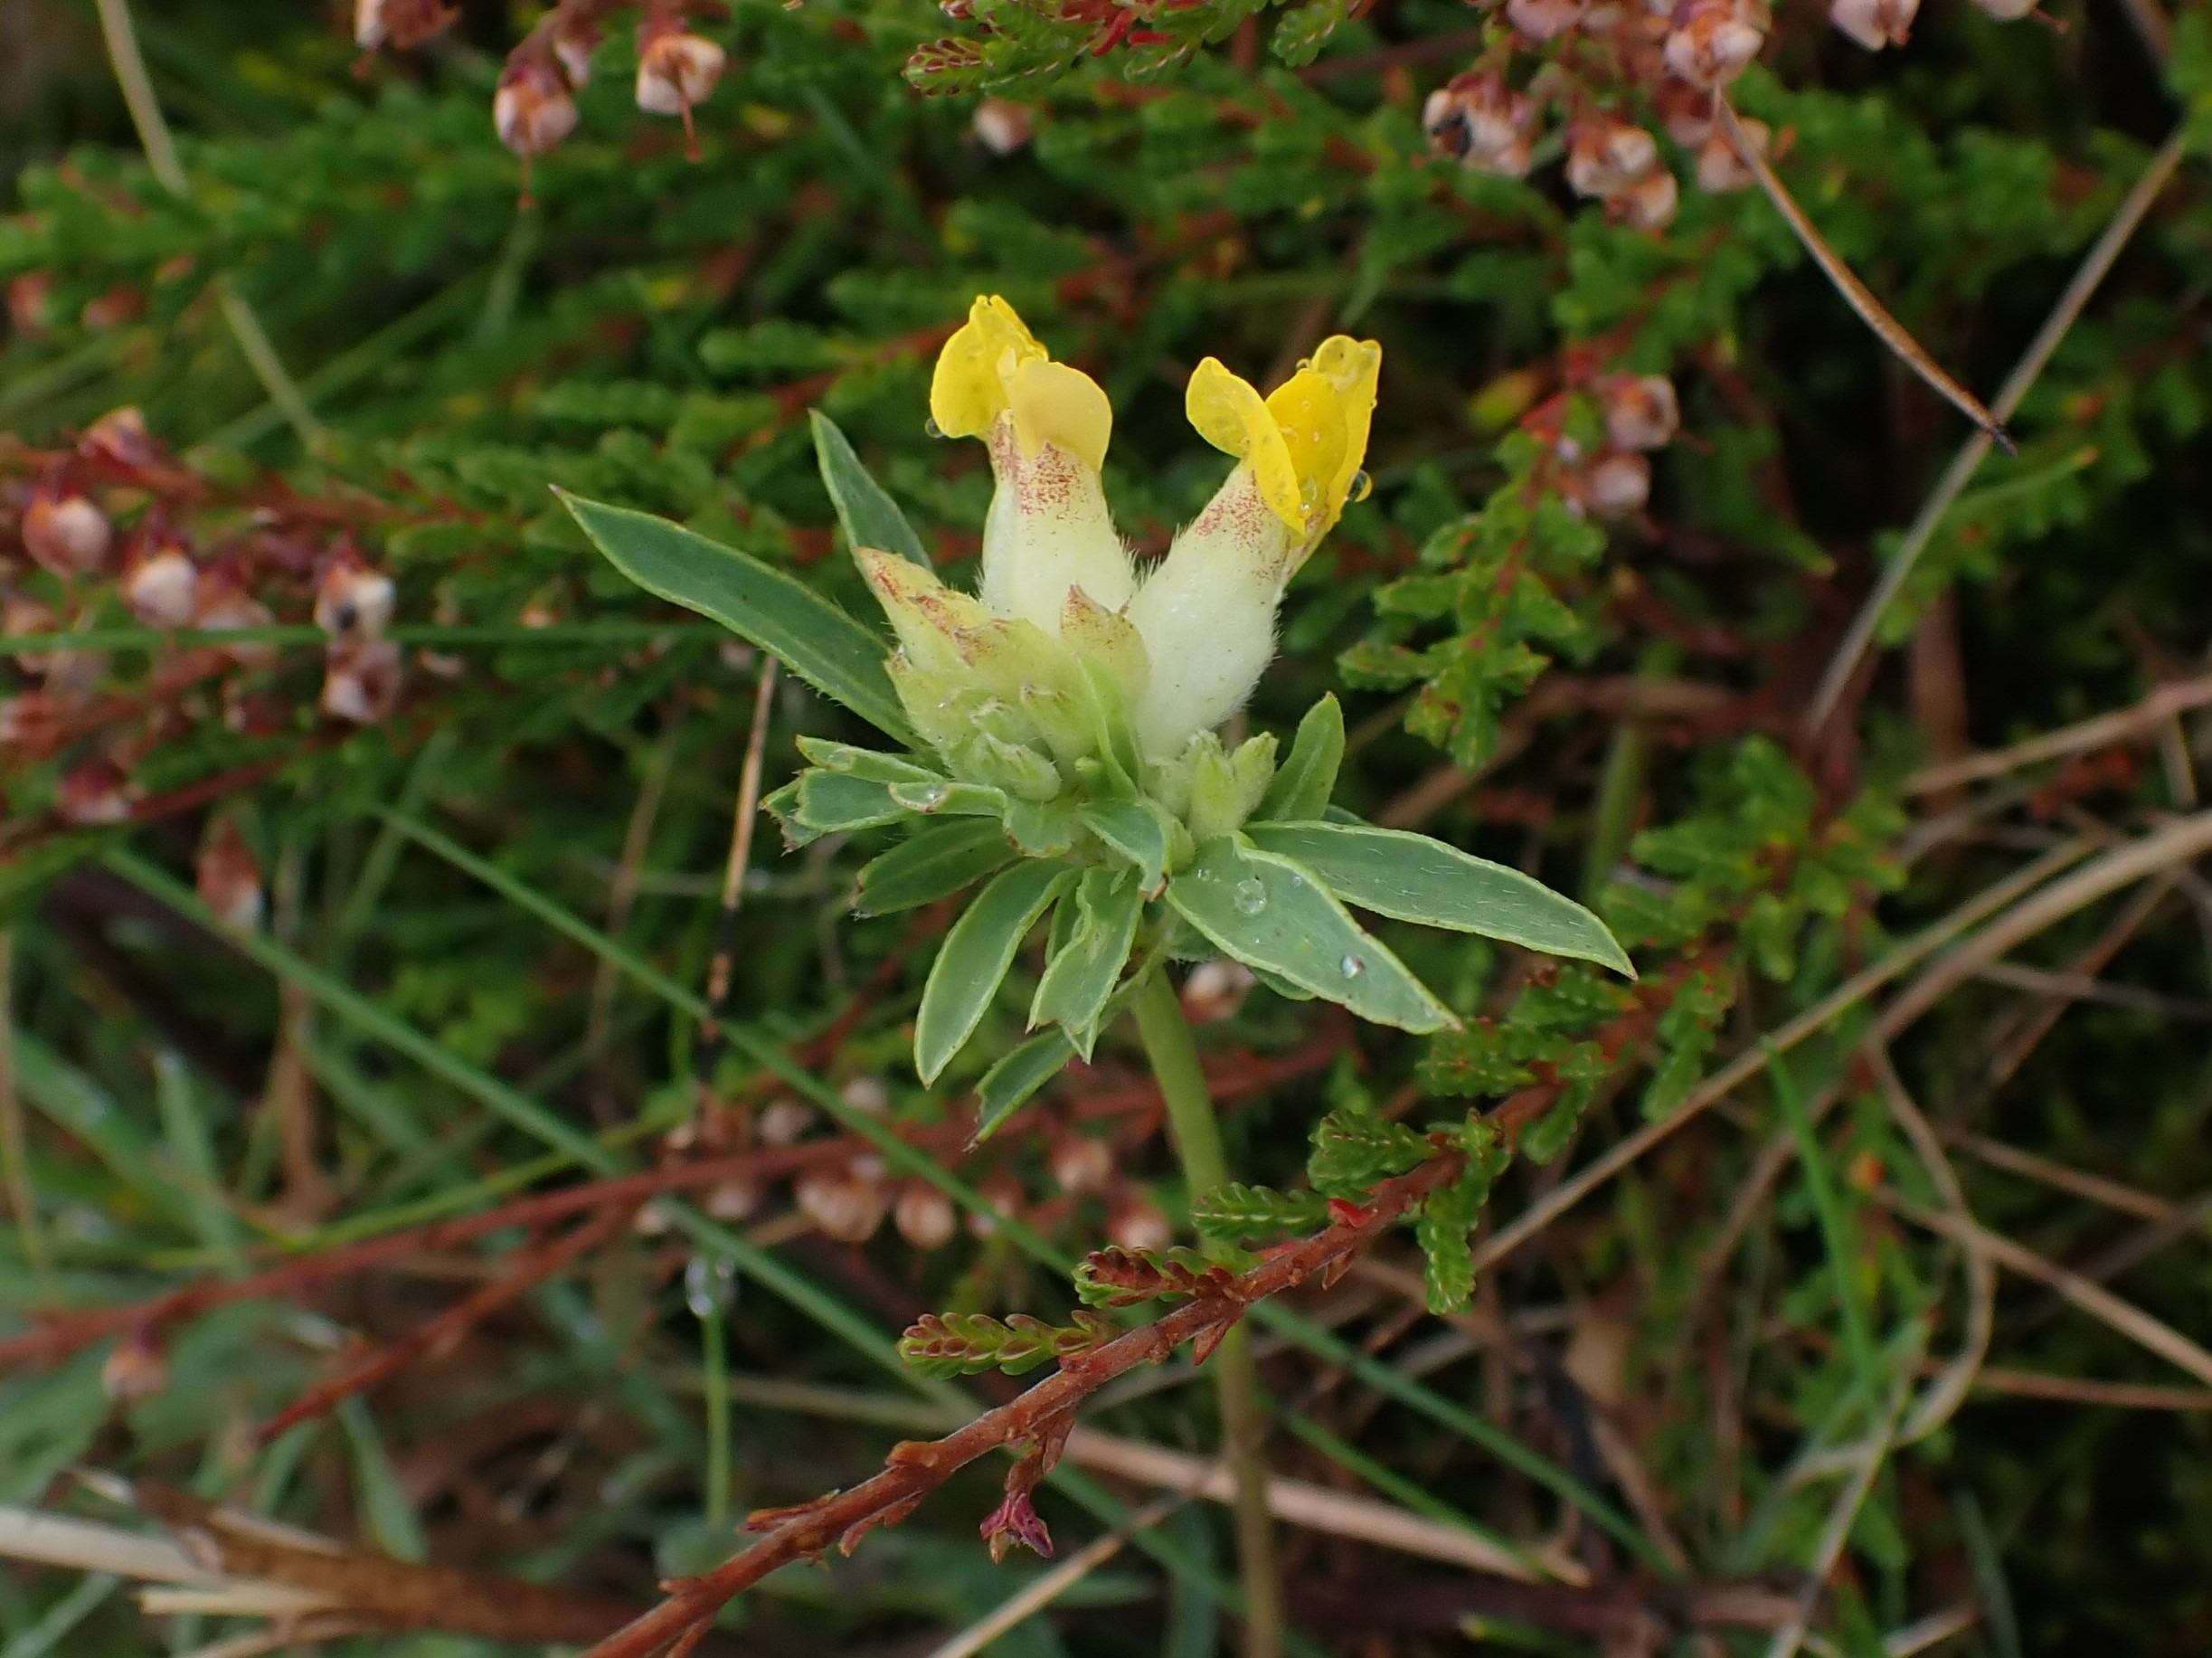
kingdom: Plantae
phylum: Tracheophyta
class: Magnoliopsida
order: Fabales
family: Fabaceae
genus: Anthyllis
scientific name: Anthyllis vulneraria
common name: Rundbælg
